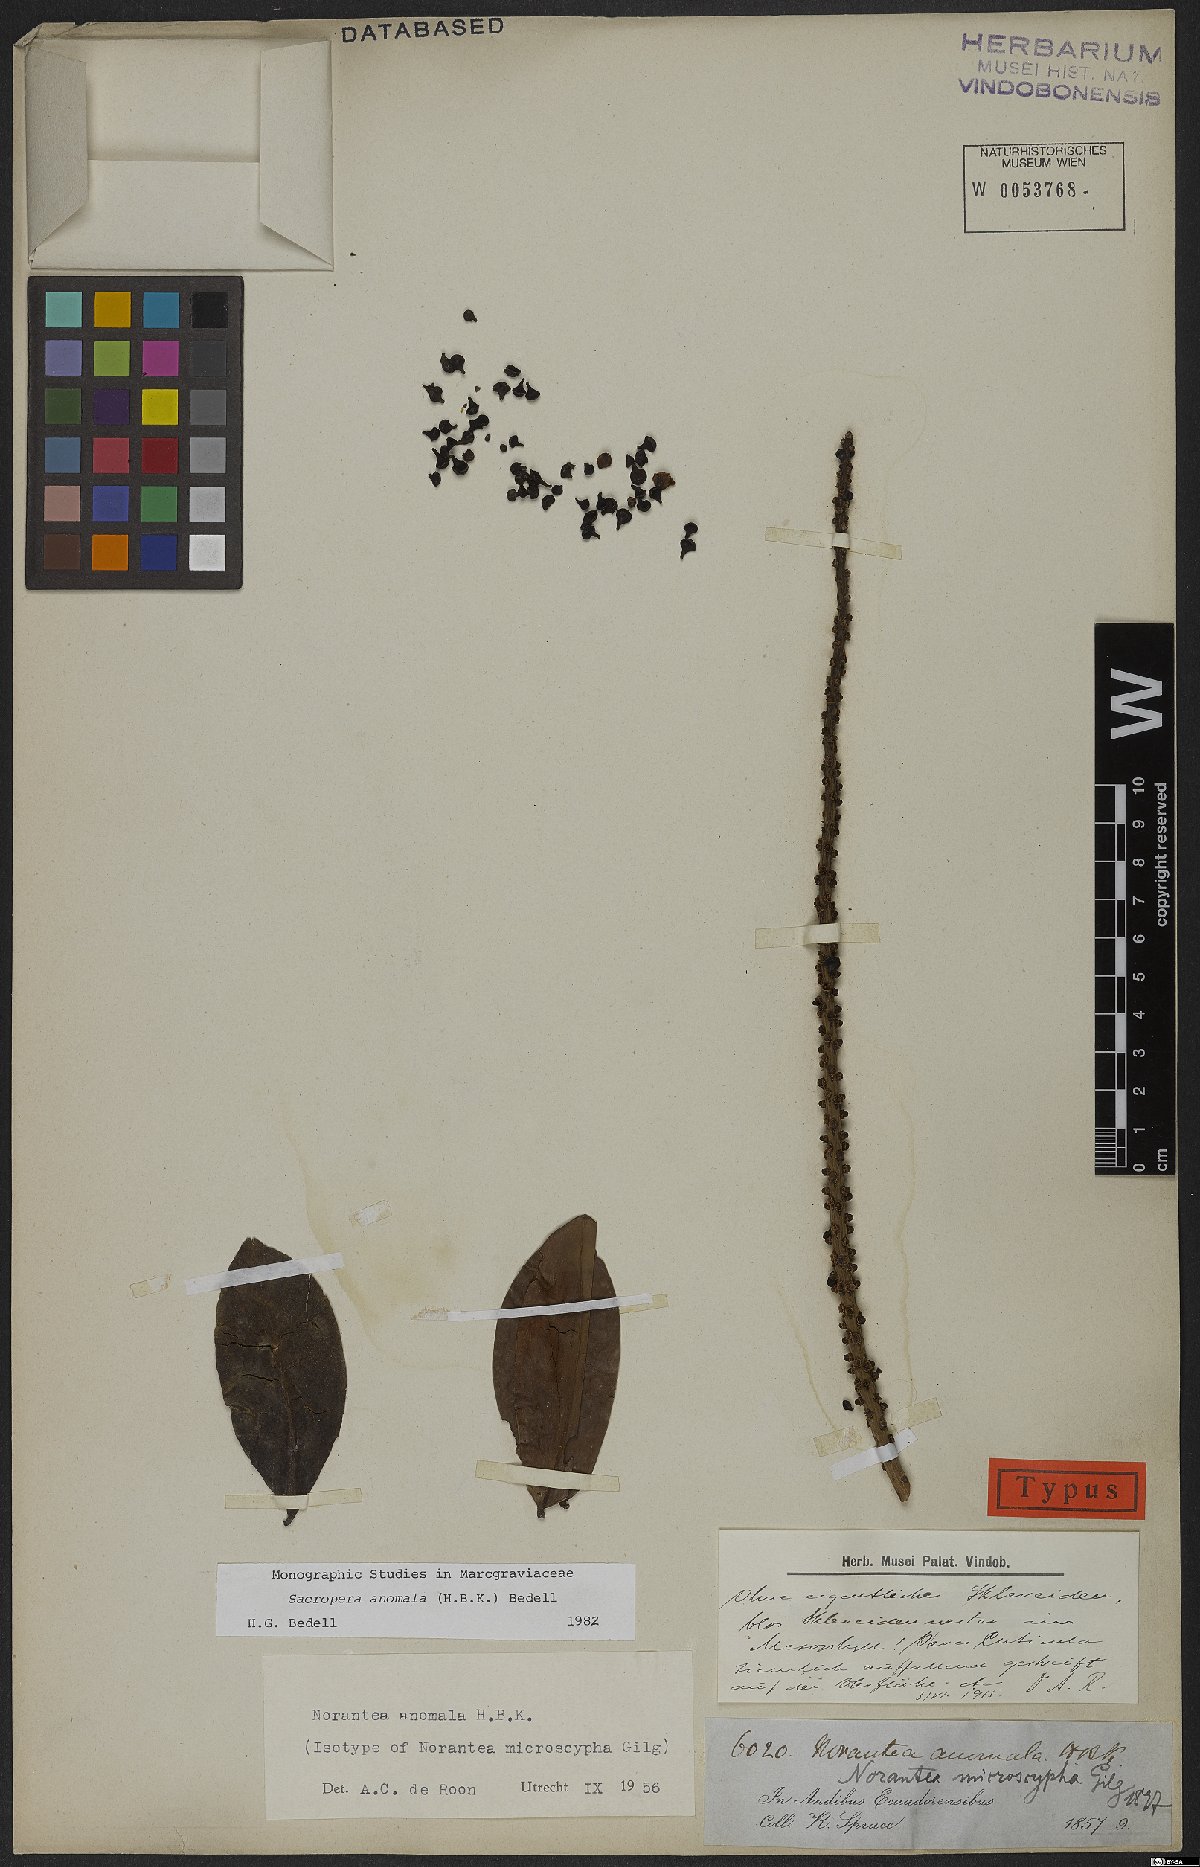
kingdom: Plantae
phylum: Tracheophyta
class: Magnoliopsida
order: Ericales
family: Marcgraviaceae
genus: Sarcopera
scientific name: Sarcopera anomala
